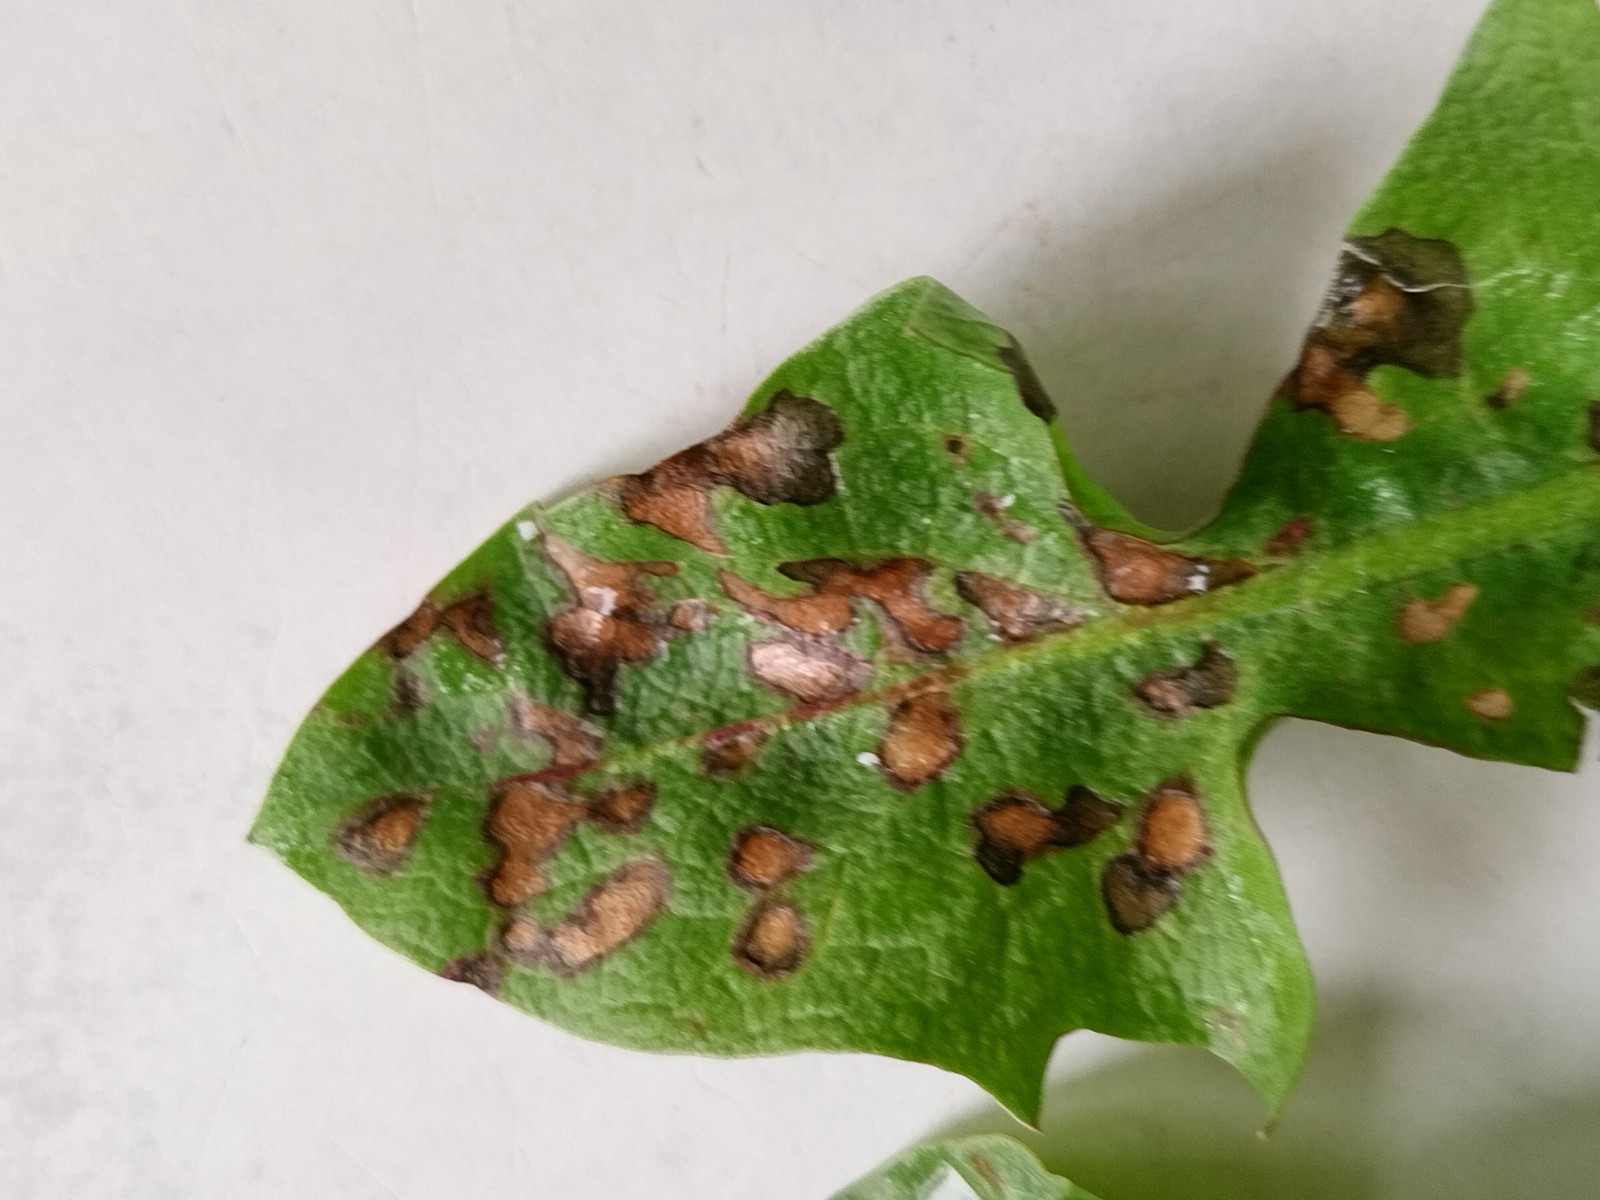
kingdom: Fungi
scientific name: Fungi
